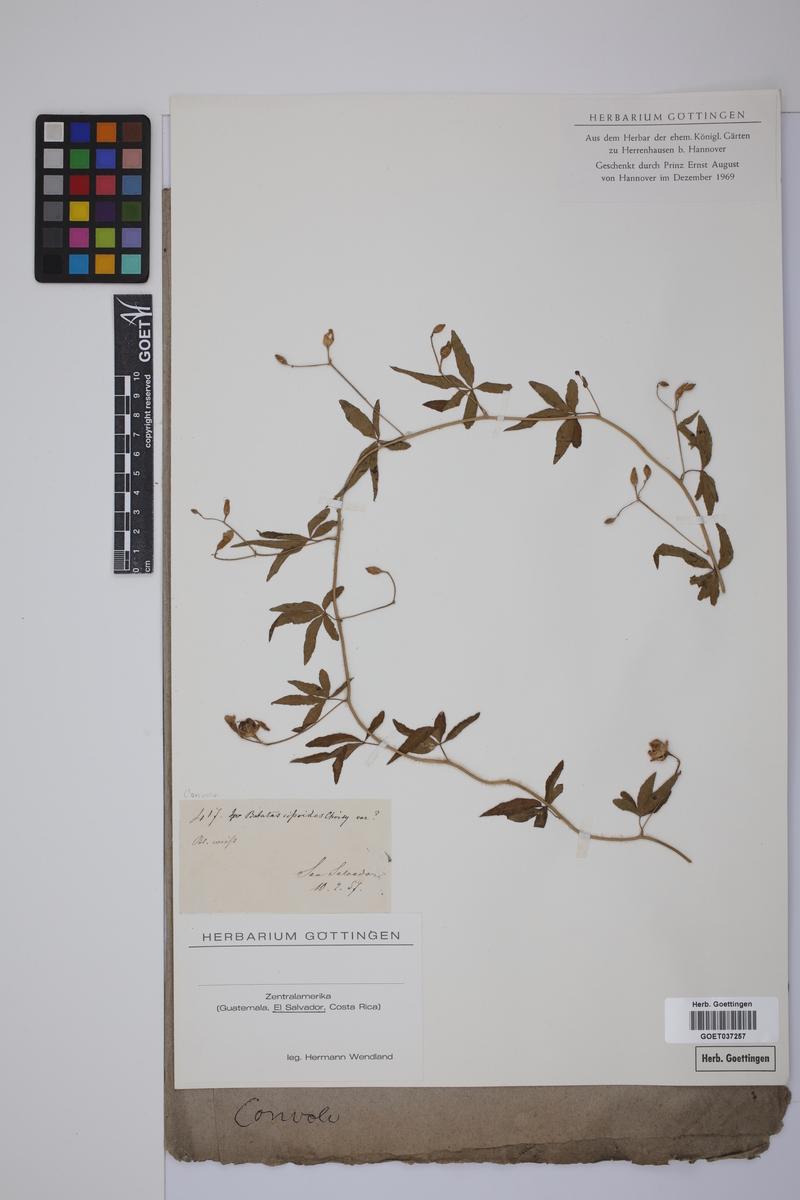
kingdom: Plantae
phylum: Tracheophyta
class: Magnoliopsida
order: Solanales
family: Convolvulaceae
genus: Distimake
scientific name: Distimake cissoides
